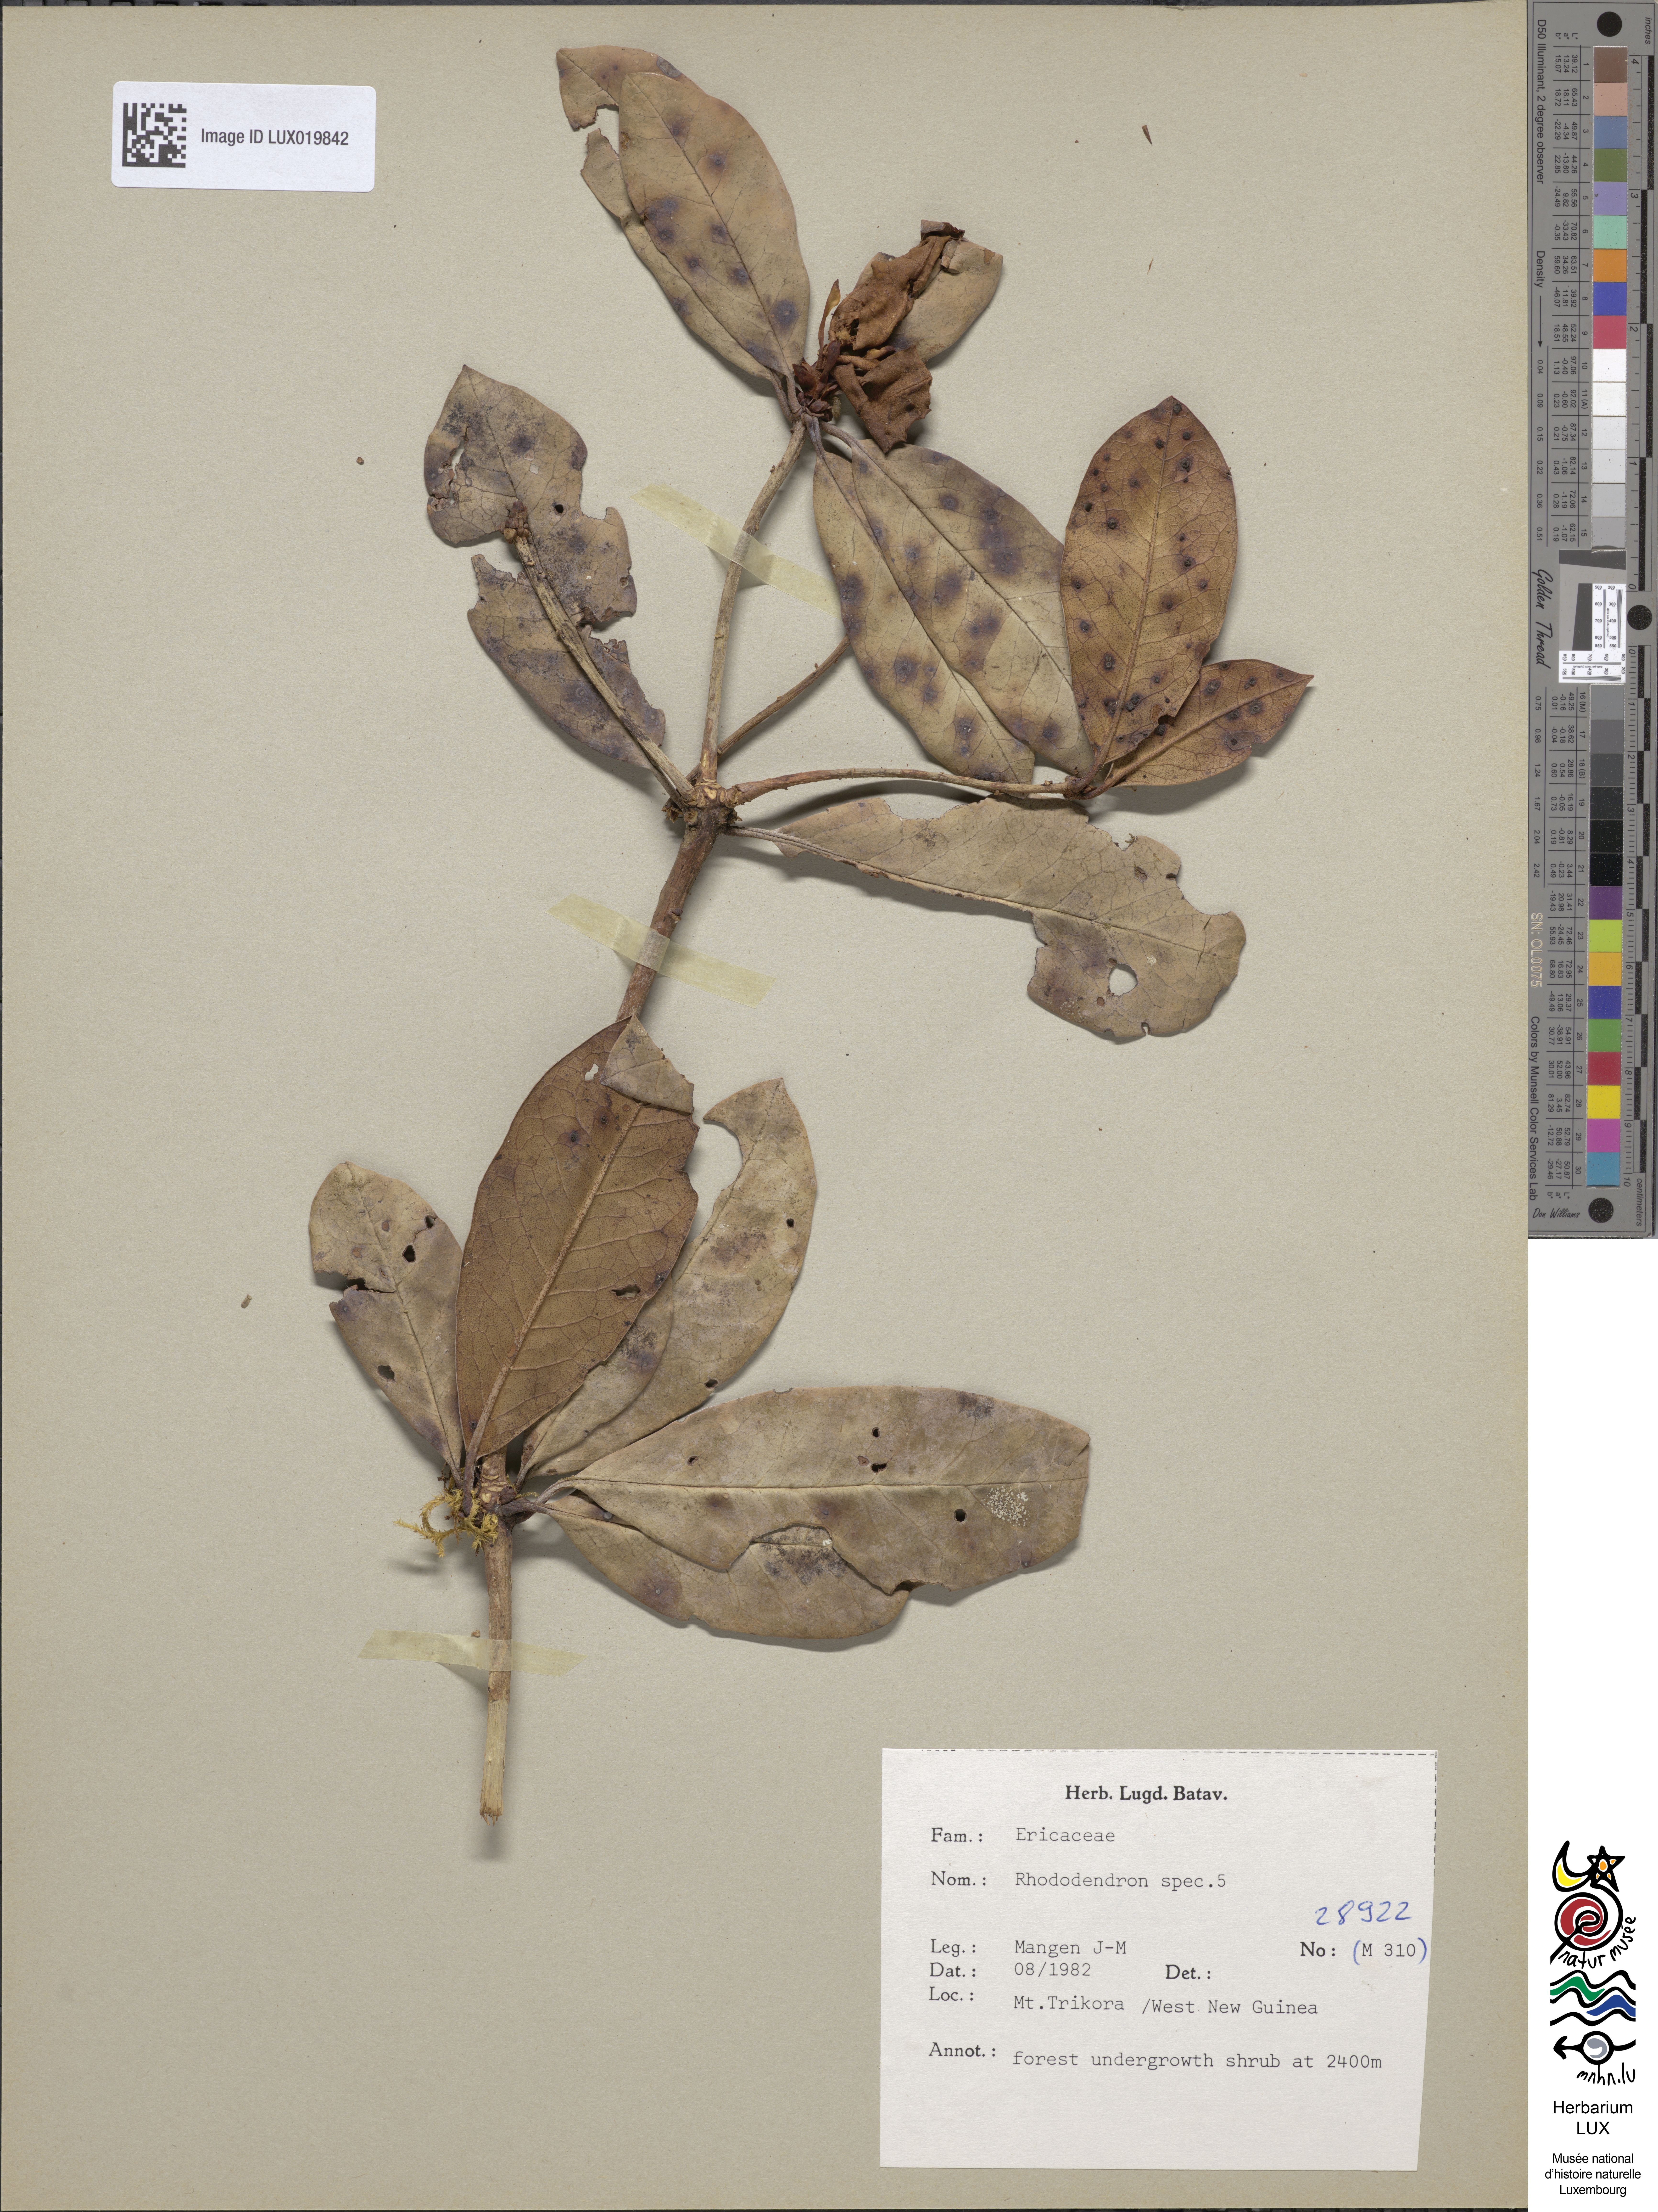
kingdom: Plantae
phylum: Tracheophyta
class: Magnoliopsida
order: Ericales
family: Ericaceae
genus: Rhododendron
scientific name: Rhododendron
